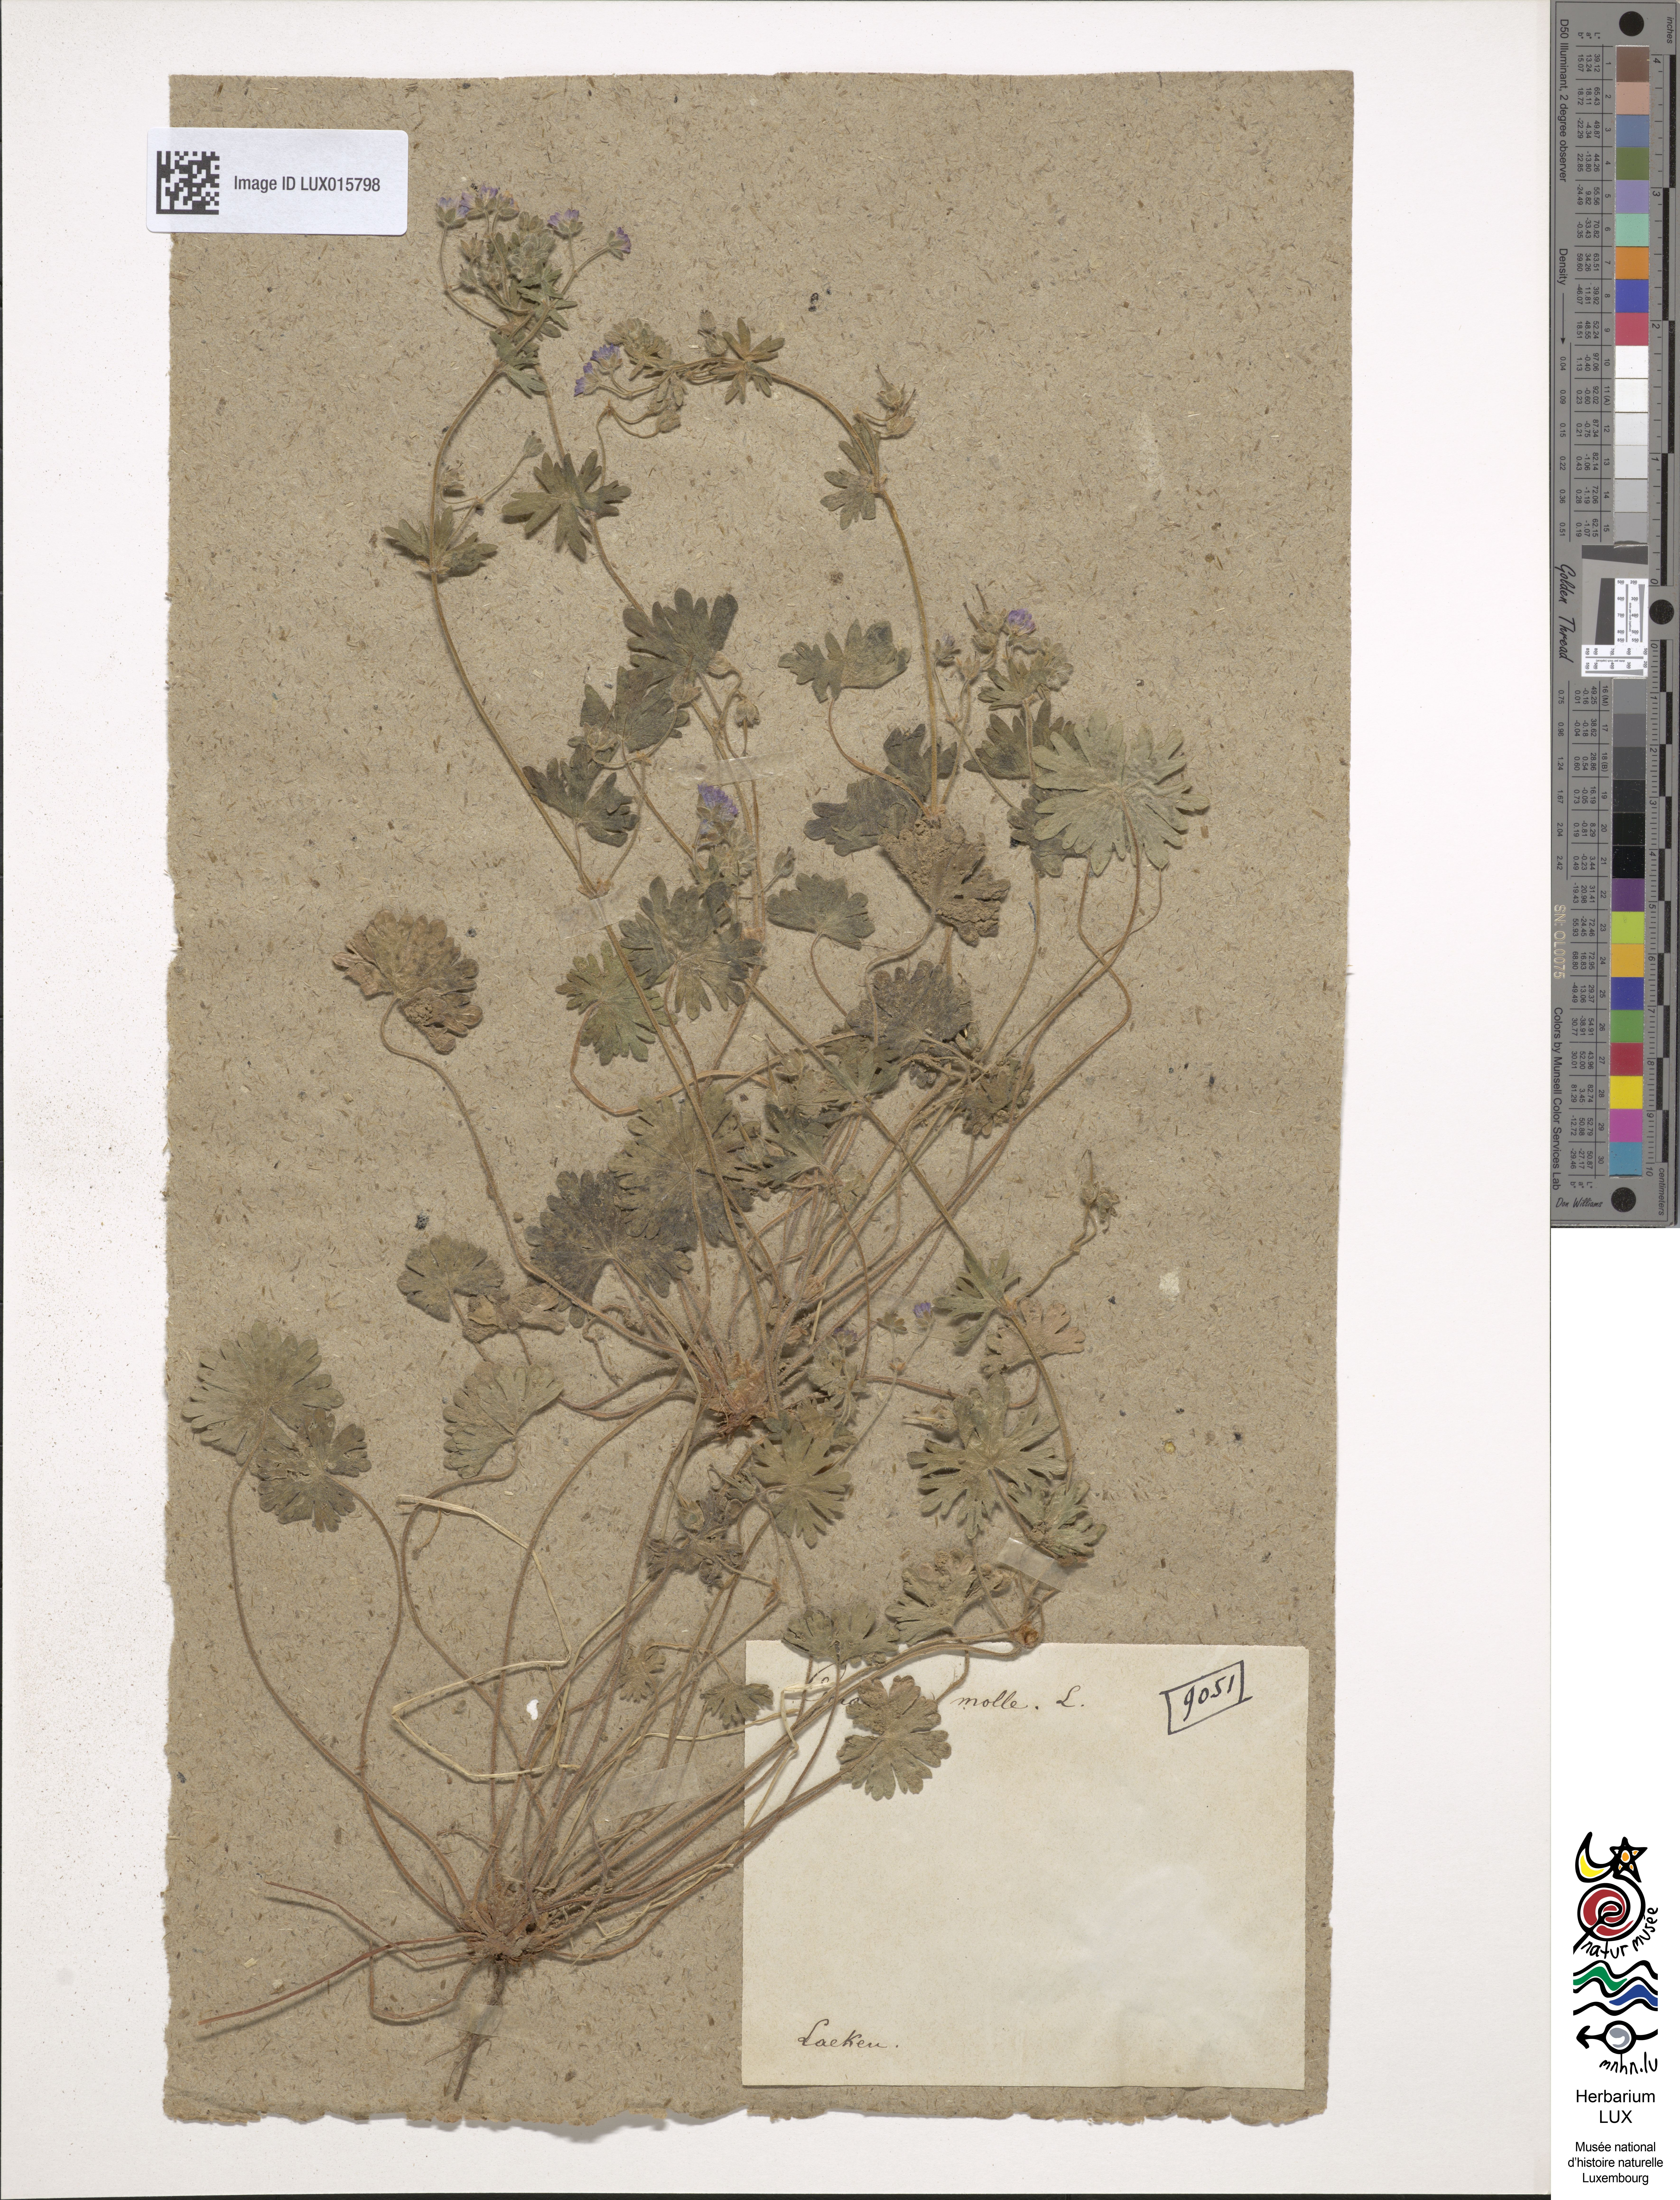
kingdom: Plantae
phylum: Tracheophyta
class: Magnoliopsida
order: Geraniales
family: Geraniaceae
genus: Geranium
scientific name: Geranium molle
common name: Dove's-foot crane's-bill
